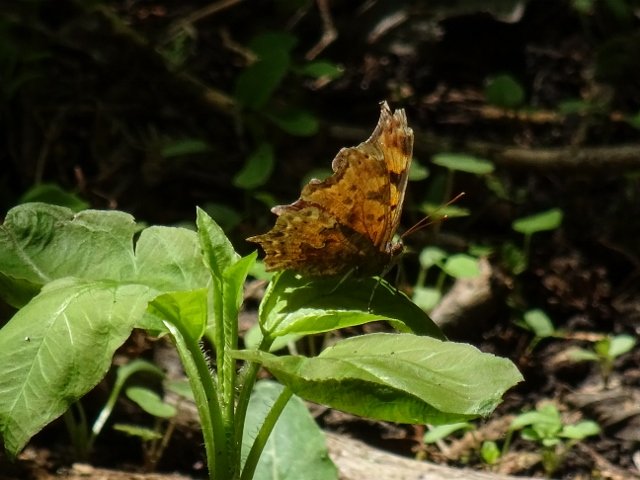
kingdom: Animalia
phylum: Arthropoda
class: Insecta
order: Lepidoptera
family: Nymphalidae
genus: Polygonia
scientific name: Polygonia comma
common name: Eastern Comma
